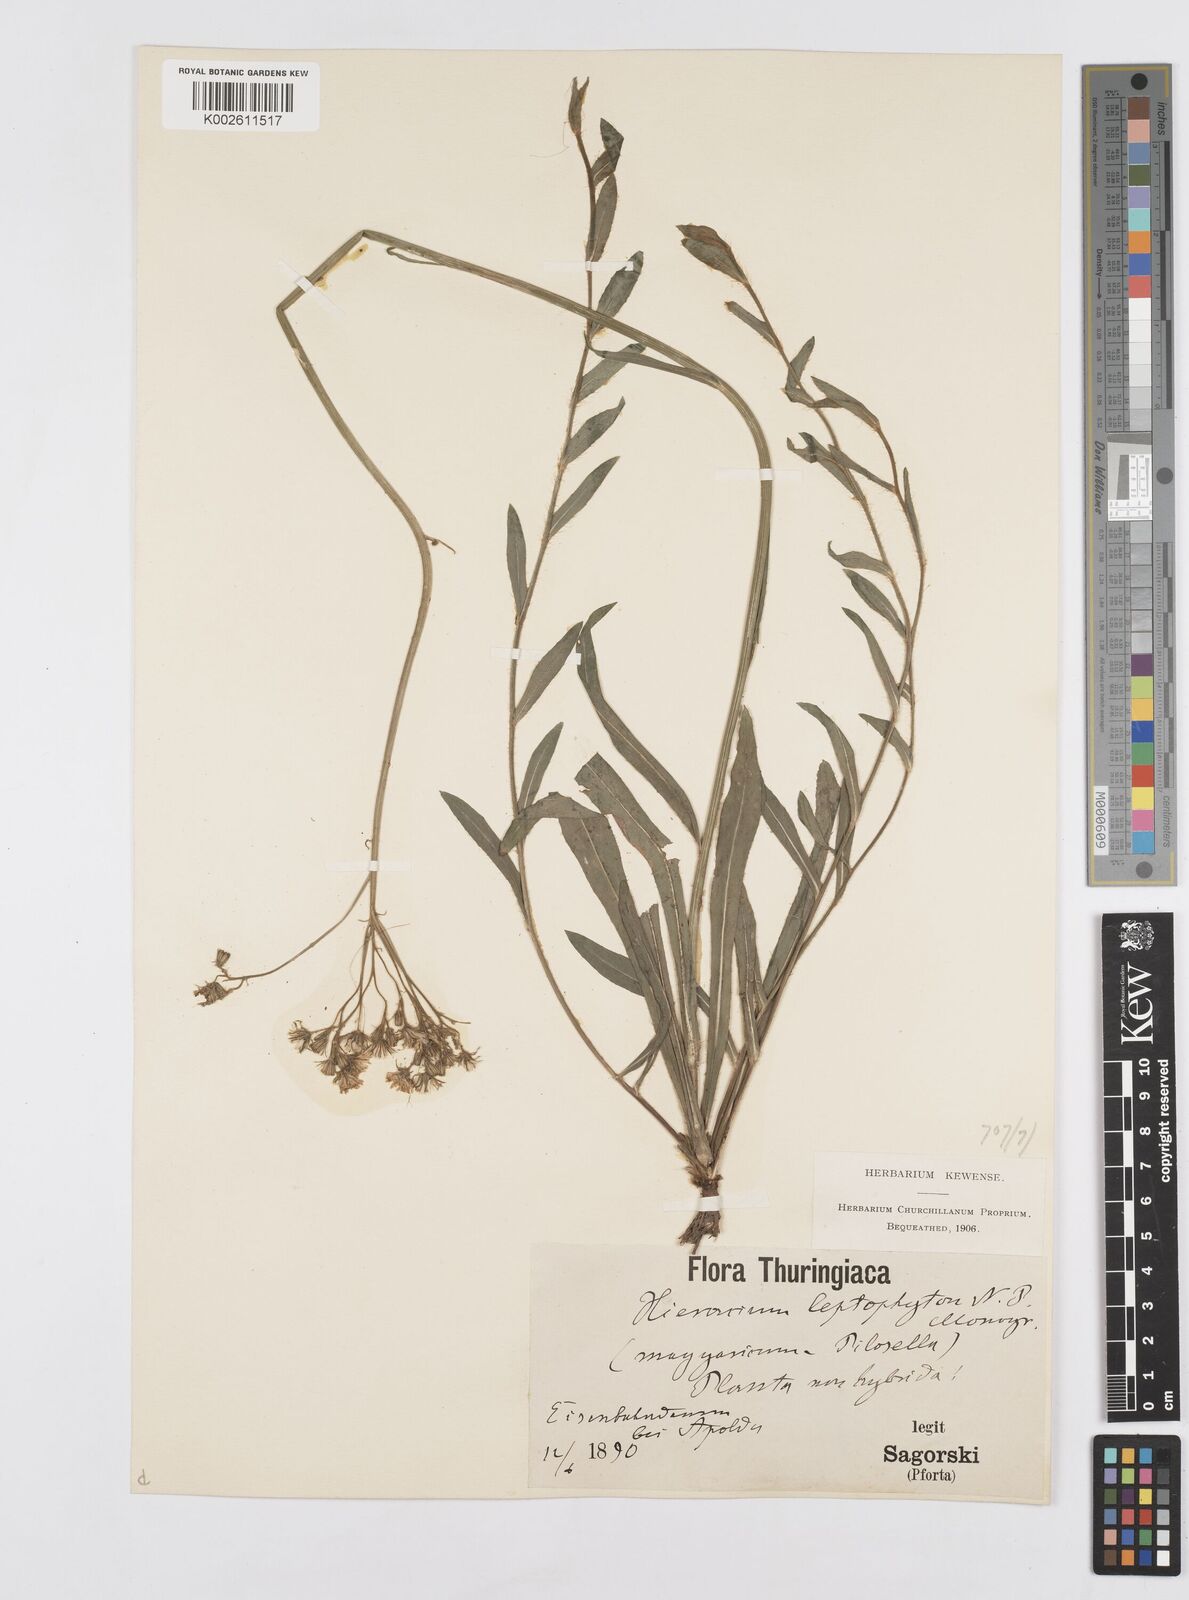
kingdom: Plantae
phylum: Tracheophyta
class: Magnoliopsida
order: Asterales
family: Asteraceae
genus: Pilosella
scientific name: Pilosella leptophyton
